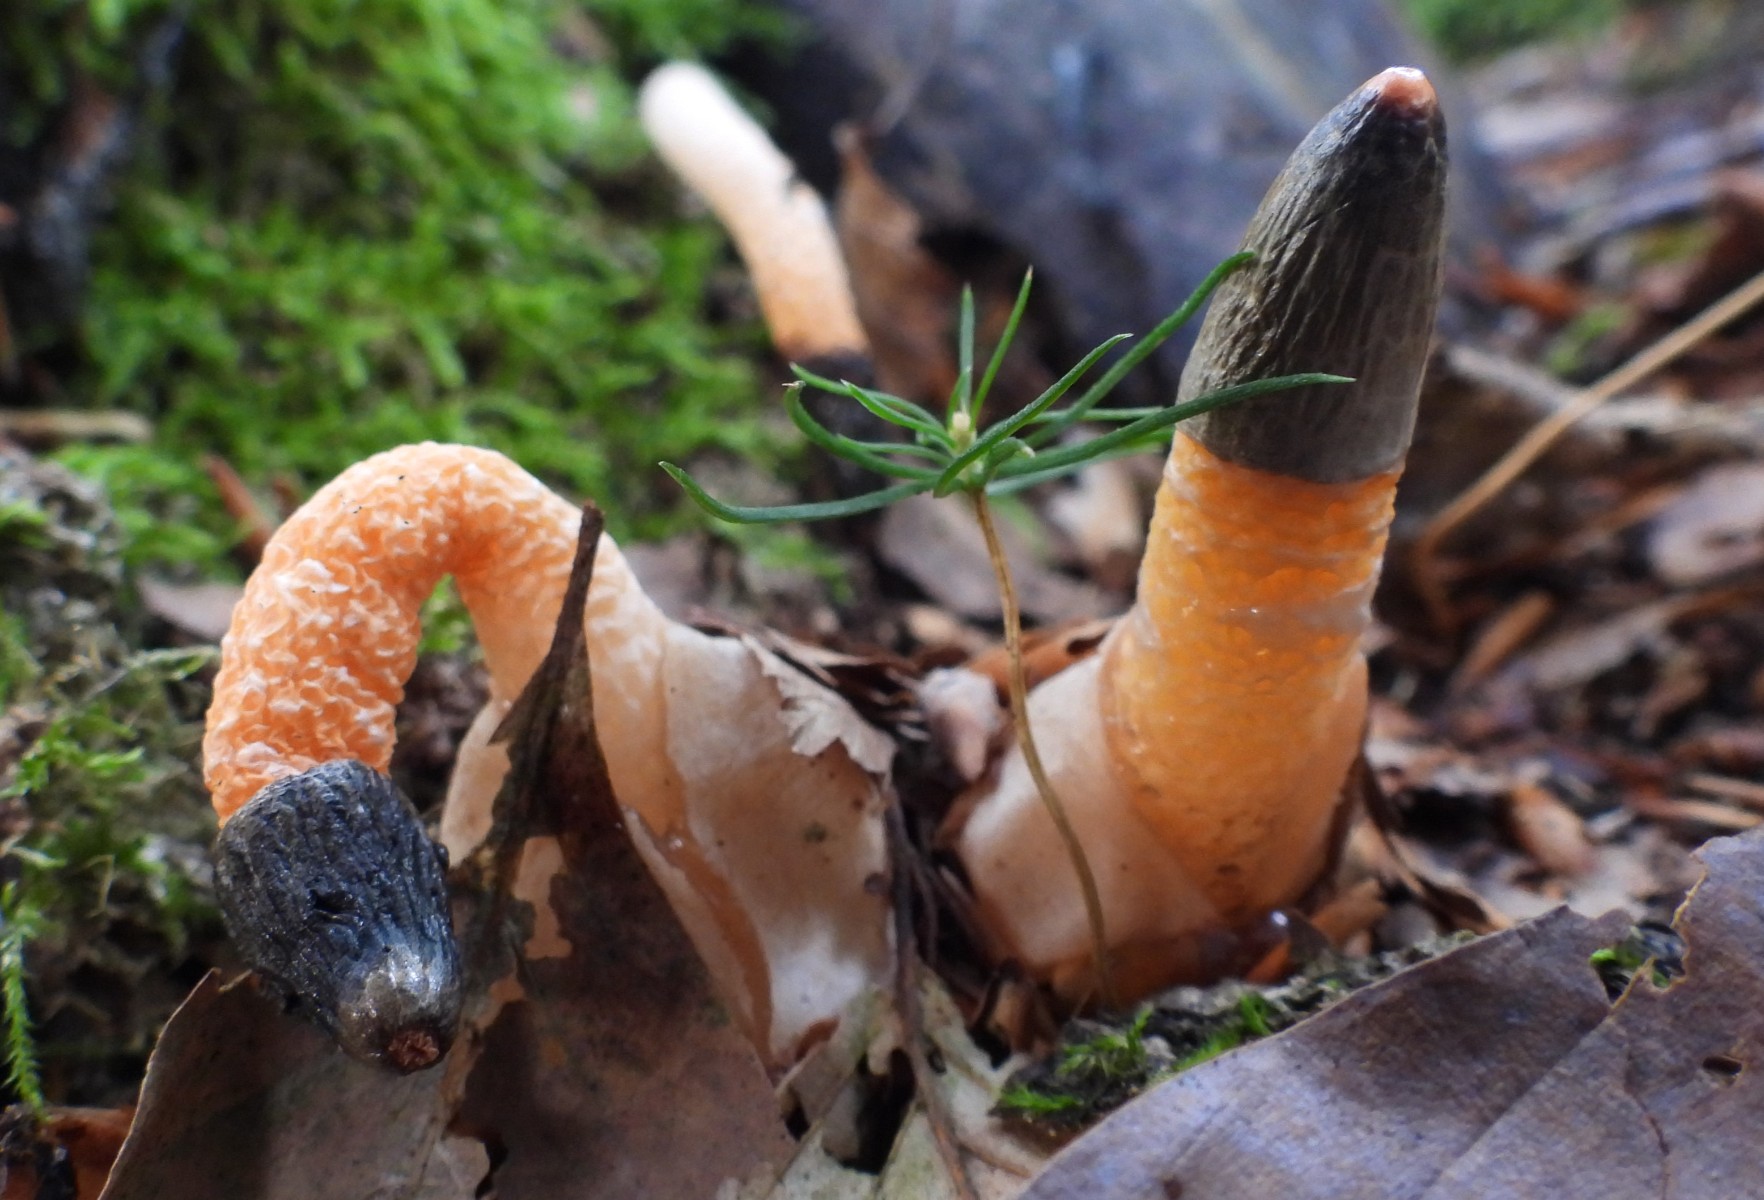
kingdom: Fungi
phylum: Basidiomycota
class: Agaricomycetes
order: Phallales
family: Phallaceae
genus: Mutinus
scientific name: Mutinus caninus
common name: hunde-stinksvamp
